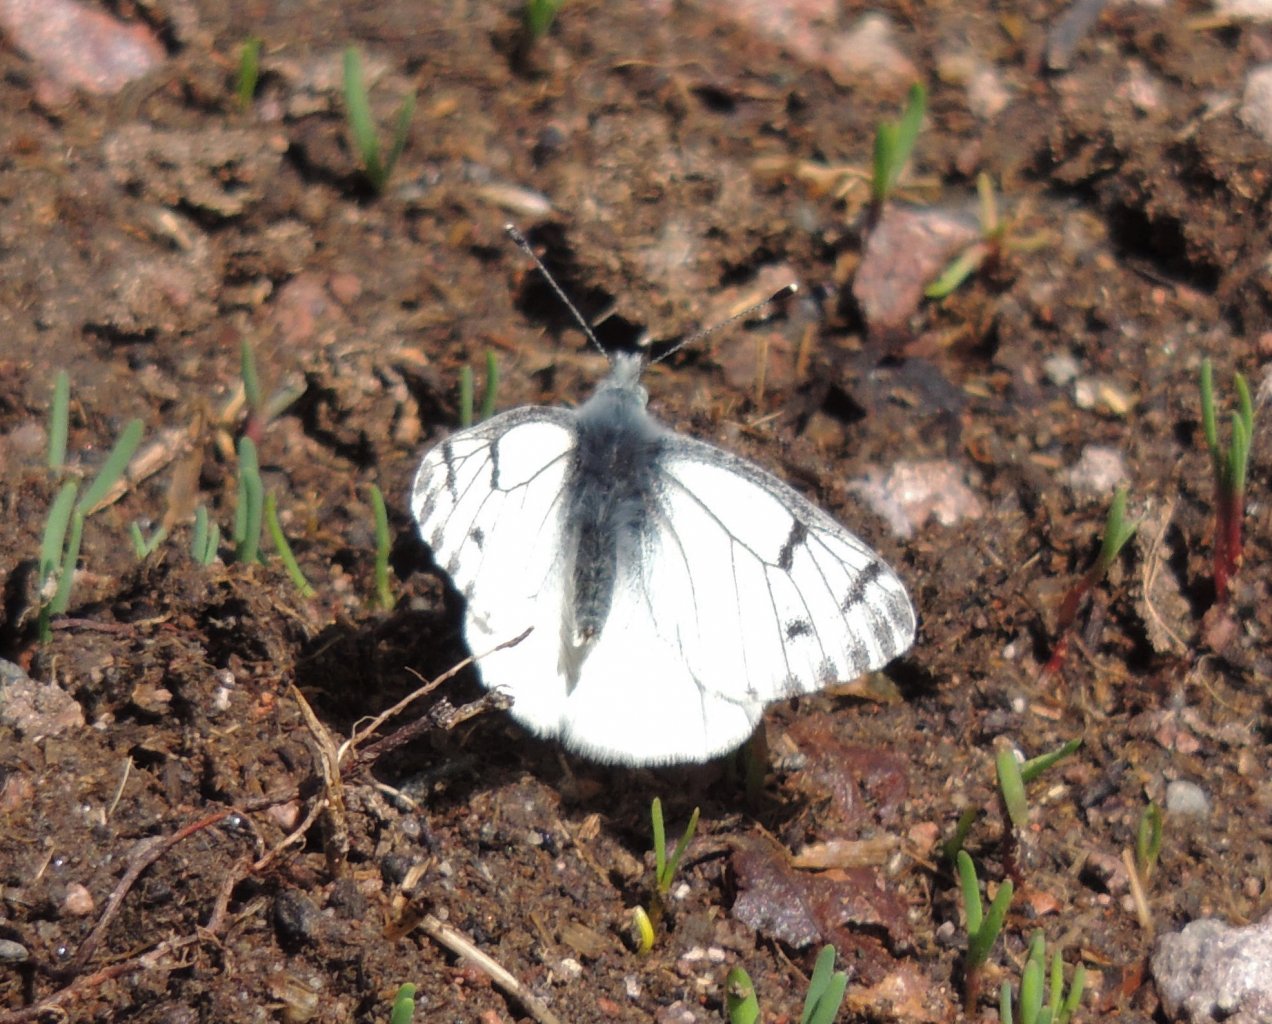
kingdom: Animalia
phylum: Arthropoda
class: Insecta
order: Lepidoptera
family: Pieridae
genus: Pontia
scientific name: Pontia sisymbrii
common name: Spring White
